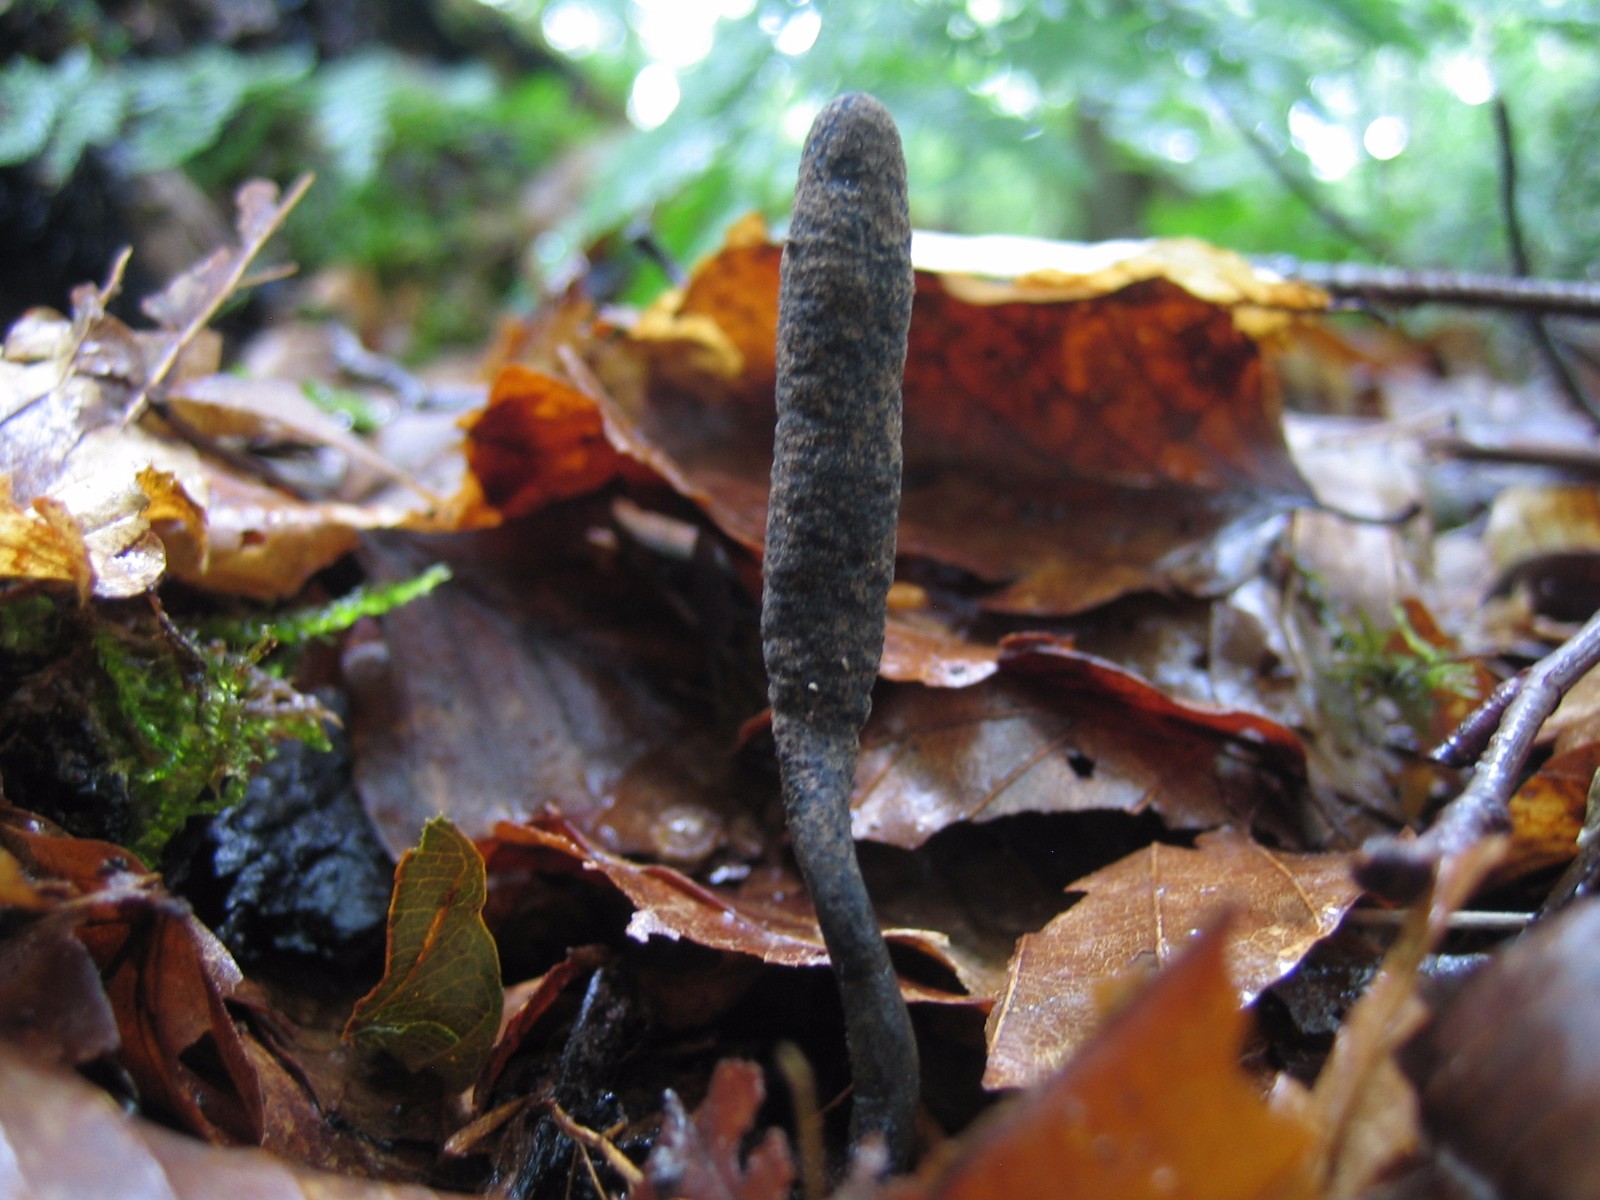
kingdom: Fungi
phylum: Ascomycota
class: Sordariomycetes
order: Xylariales
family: Xylariaceae
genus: Xylaria
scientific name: Xylaria longipes
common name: slank stødsvamp
